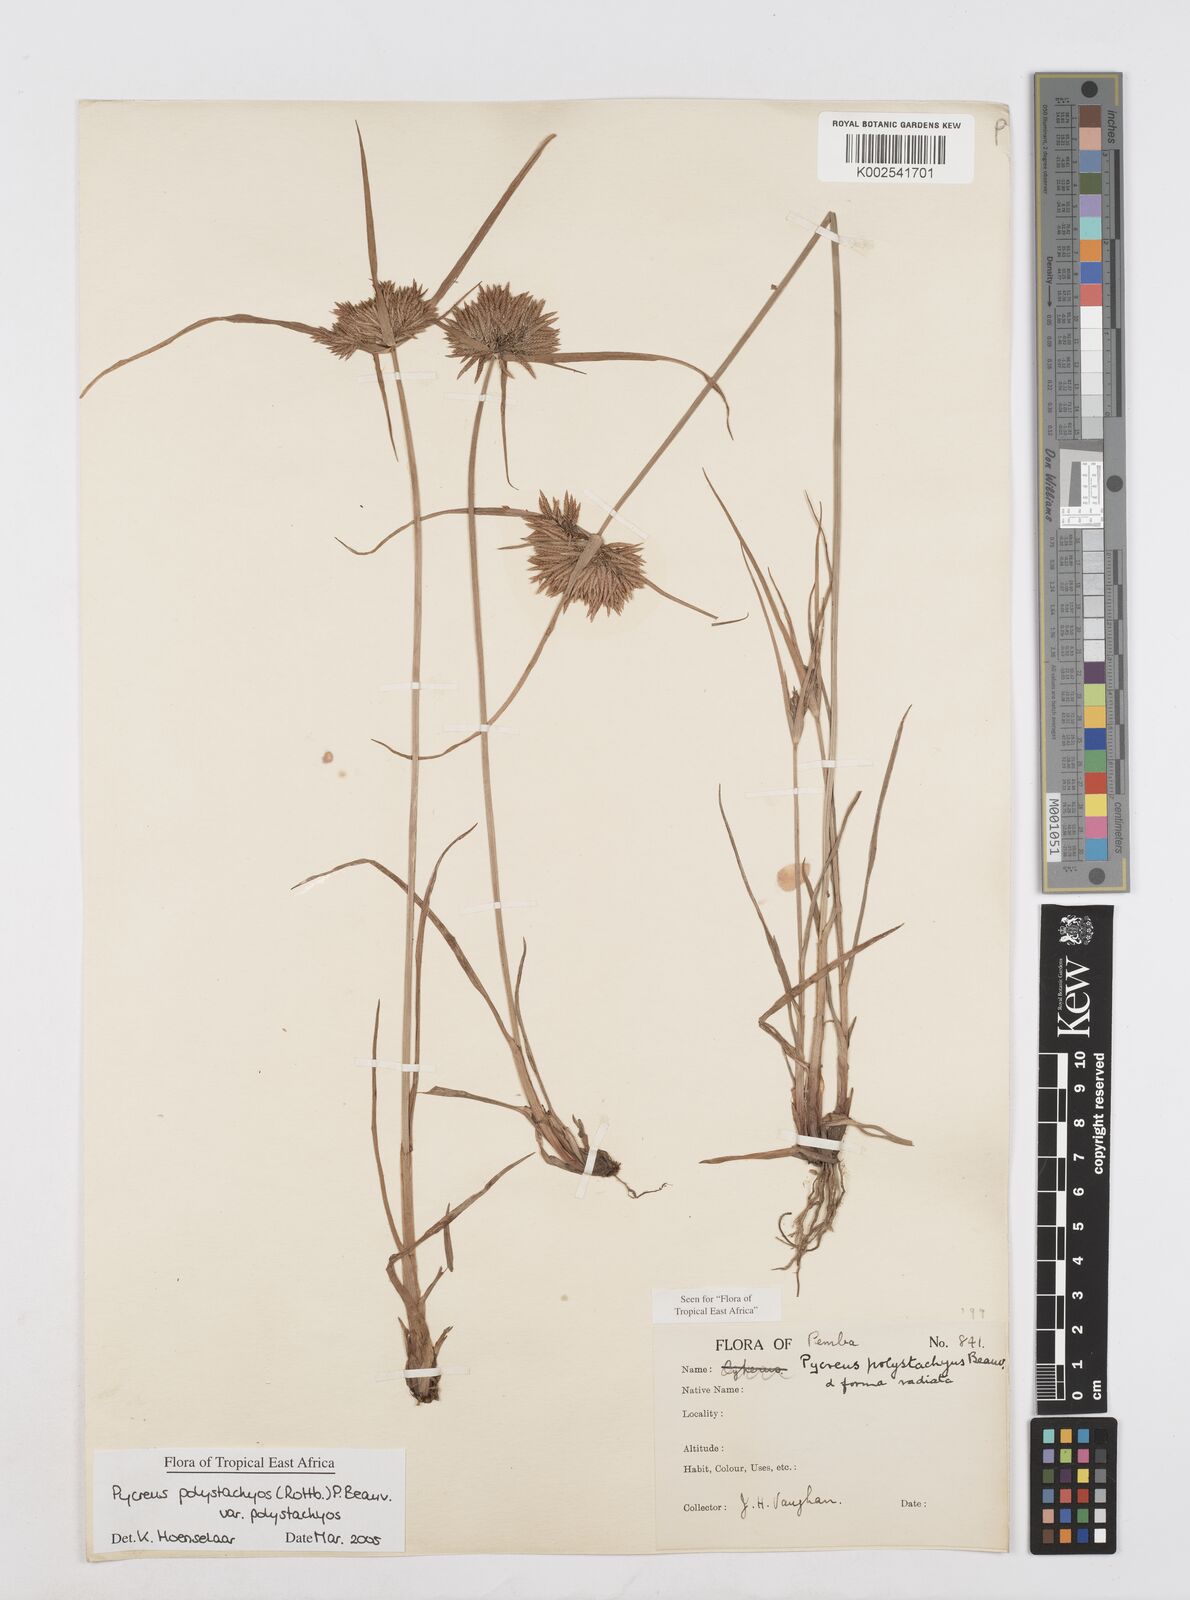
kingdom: Plantae
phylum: Tracheophyta
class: Liliopsida
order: Poales
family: Cyperaceae
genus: Cyperus
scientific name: Cyperus polystachyos
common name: Bunchy flat sedge
